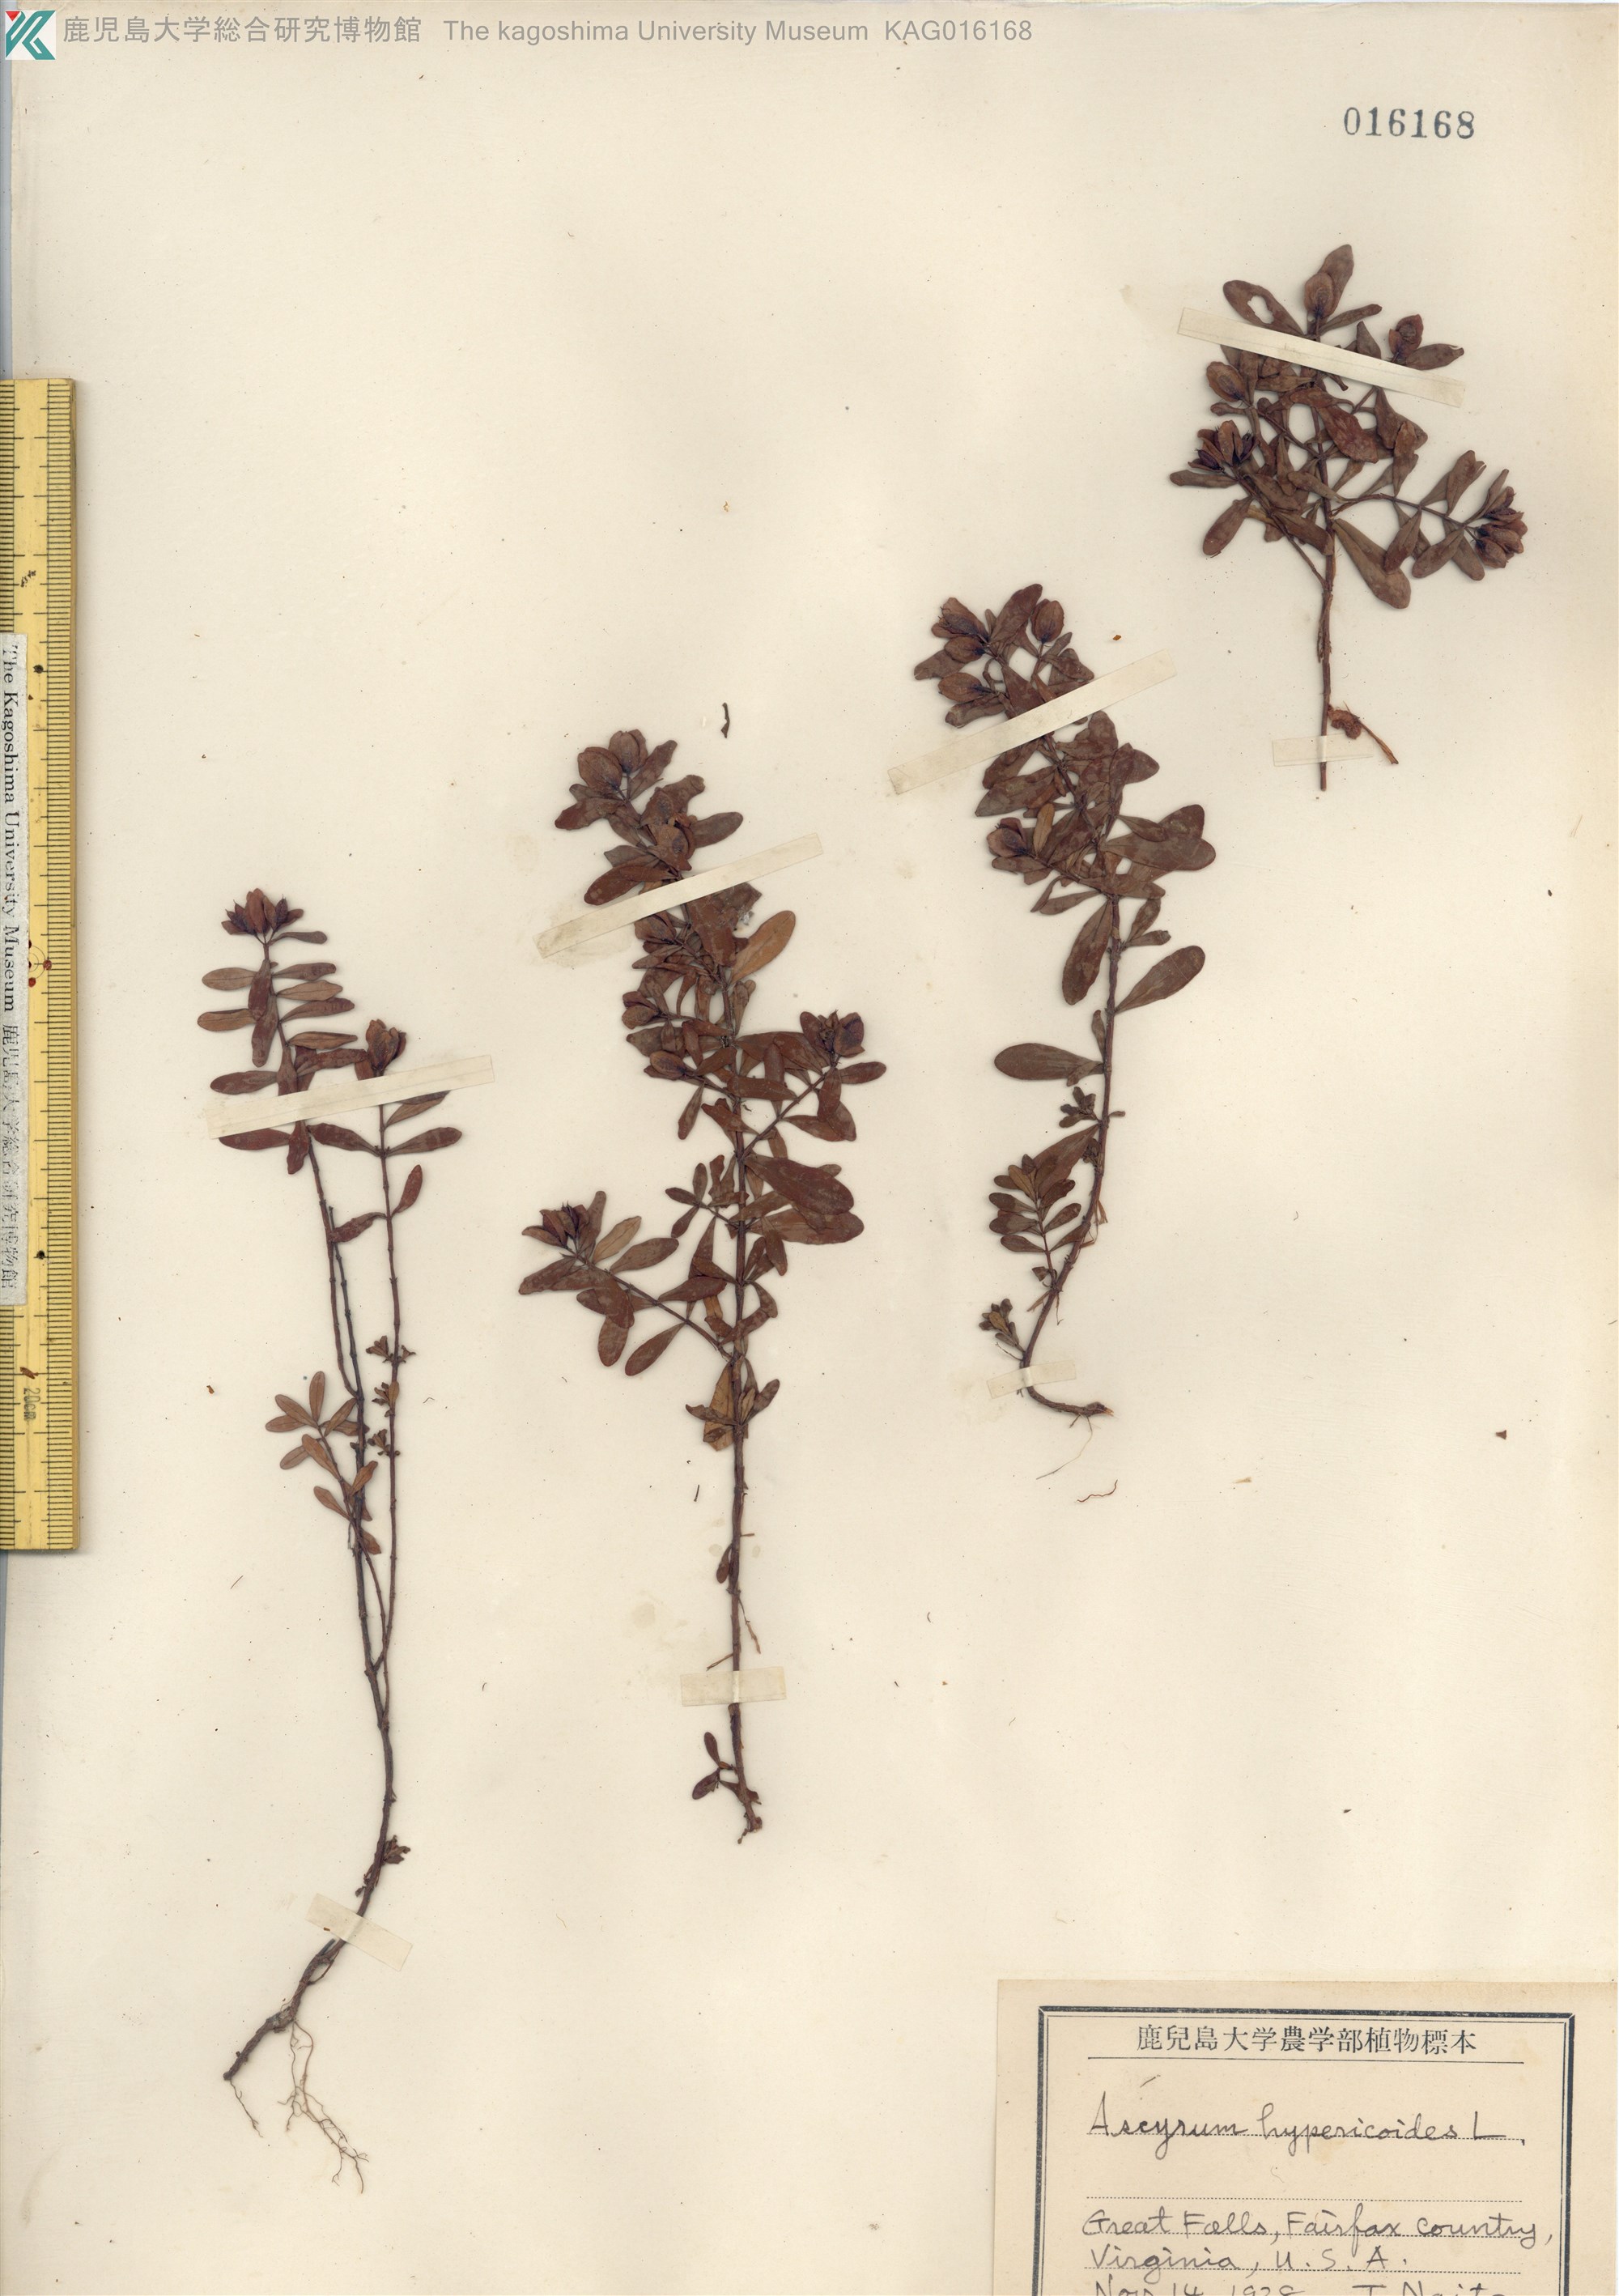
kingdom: Plantae
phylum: Tracheophyta
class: Magnoliopsida
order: Malpighiales
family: Hypericaceae
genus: Hypericum
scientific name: Hypericum
